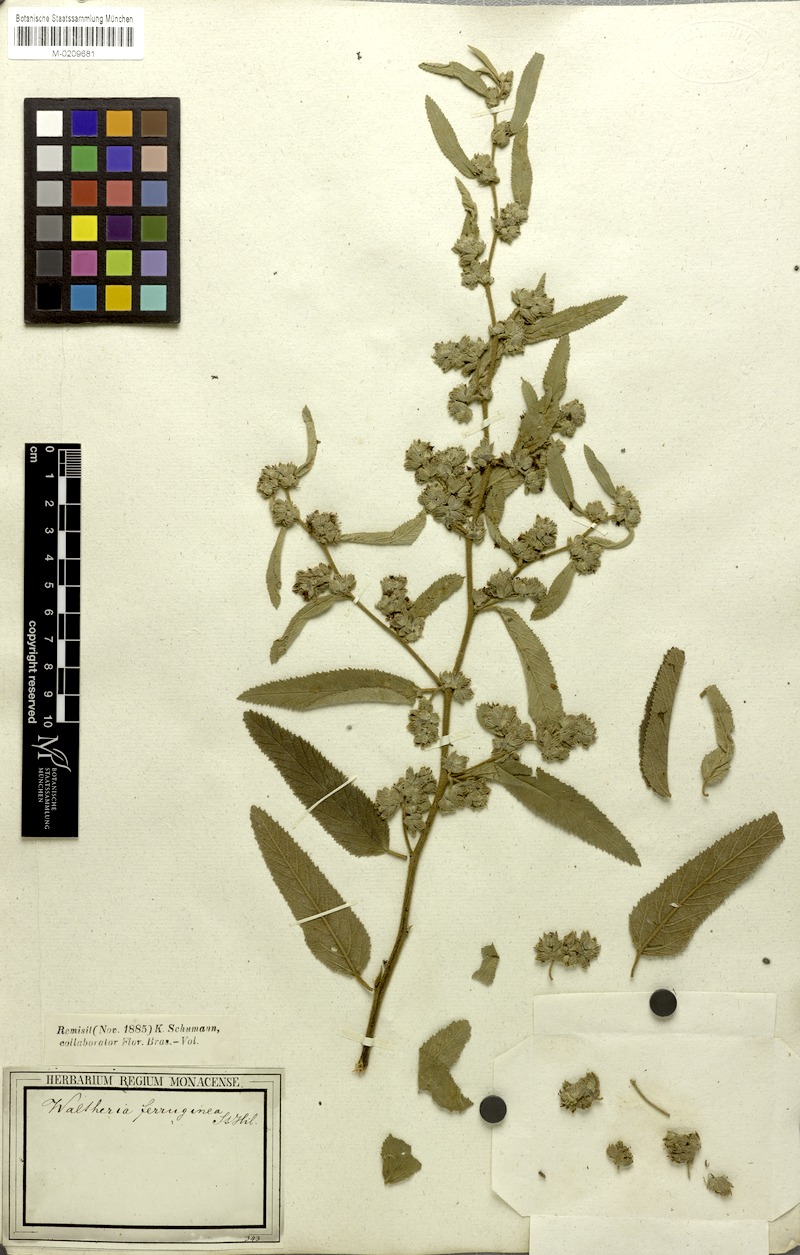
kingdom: Plantae
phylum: Tracheophyta
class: Magnoliopsida
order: Malvales
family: Malvaceae
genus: Waltheria
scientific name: Waltheria ferruginea
